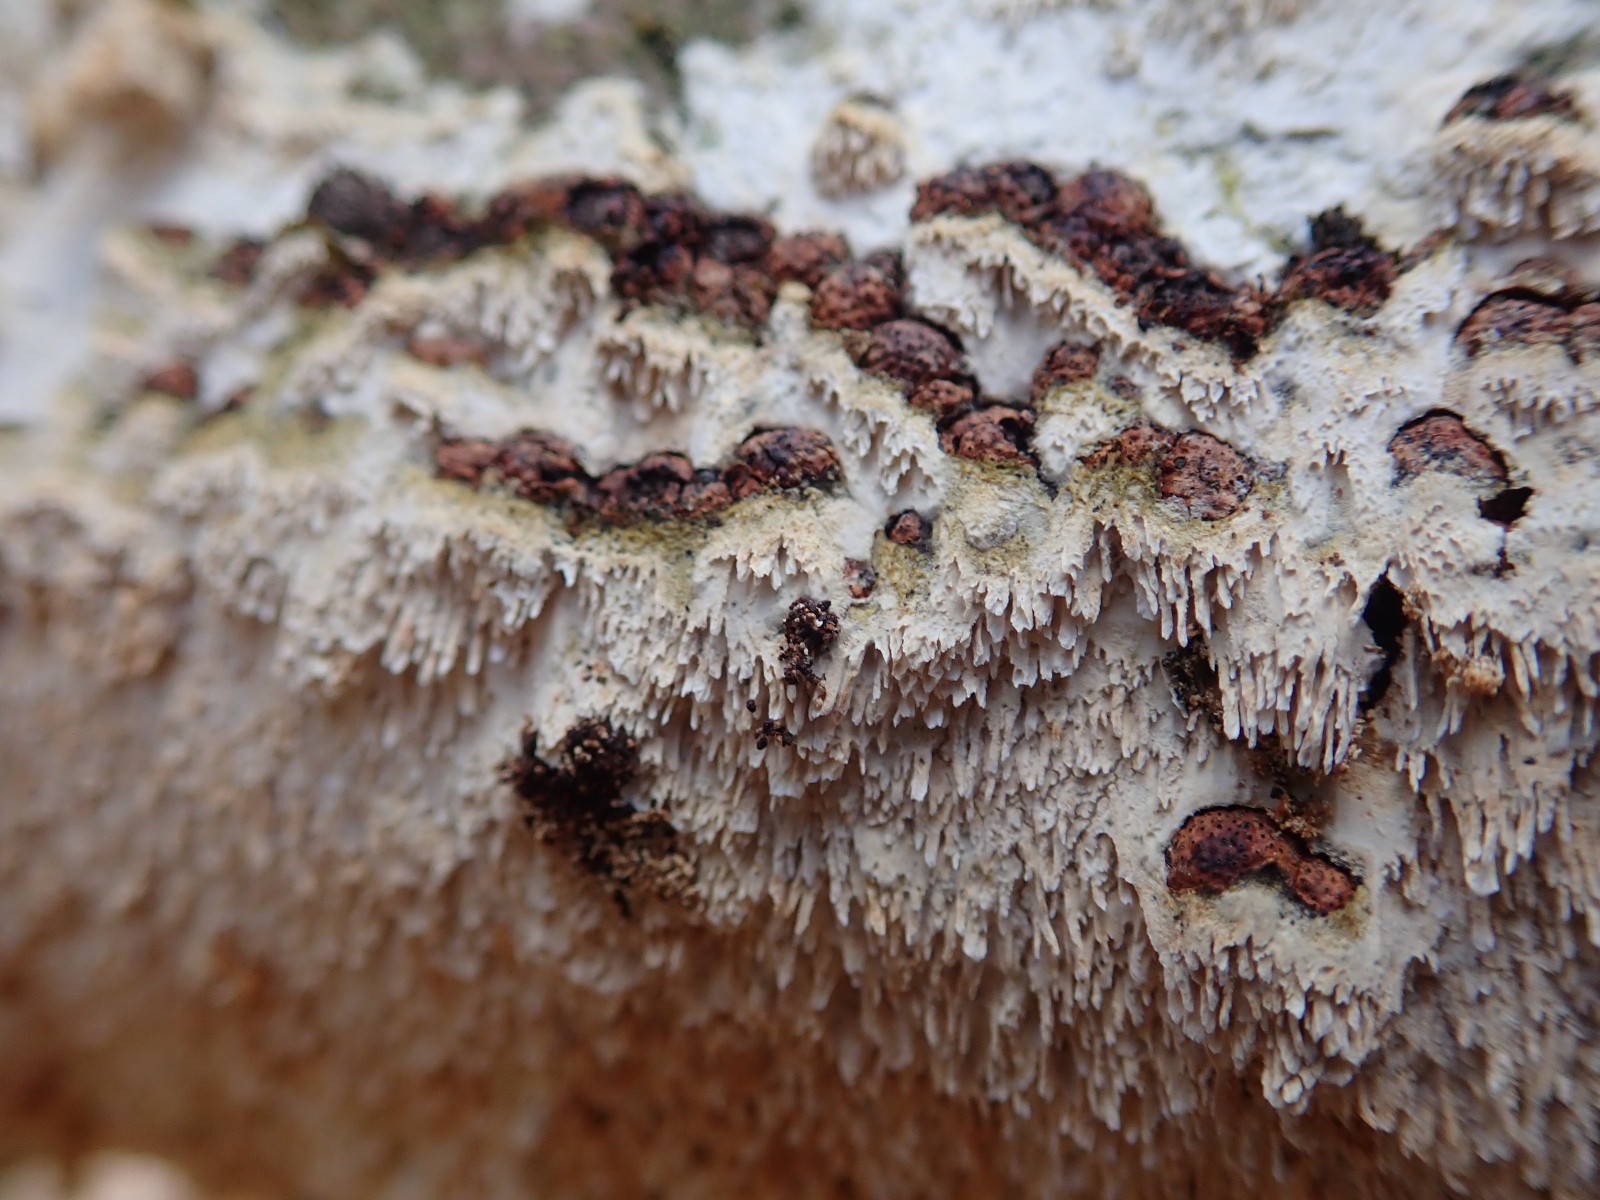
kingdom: Fungi
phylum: Basidiomycota
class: Agaricomycetes
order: Hymenochaetales
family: Schizoporaceae
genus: Schizopora
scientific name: Schizopora paradoxa
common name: hvid tandsvamp
